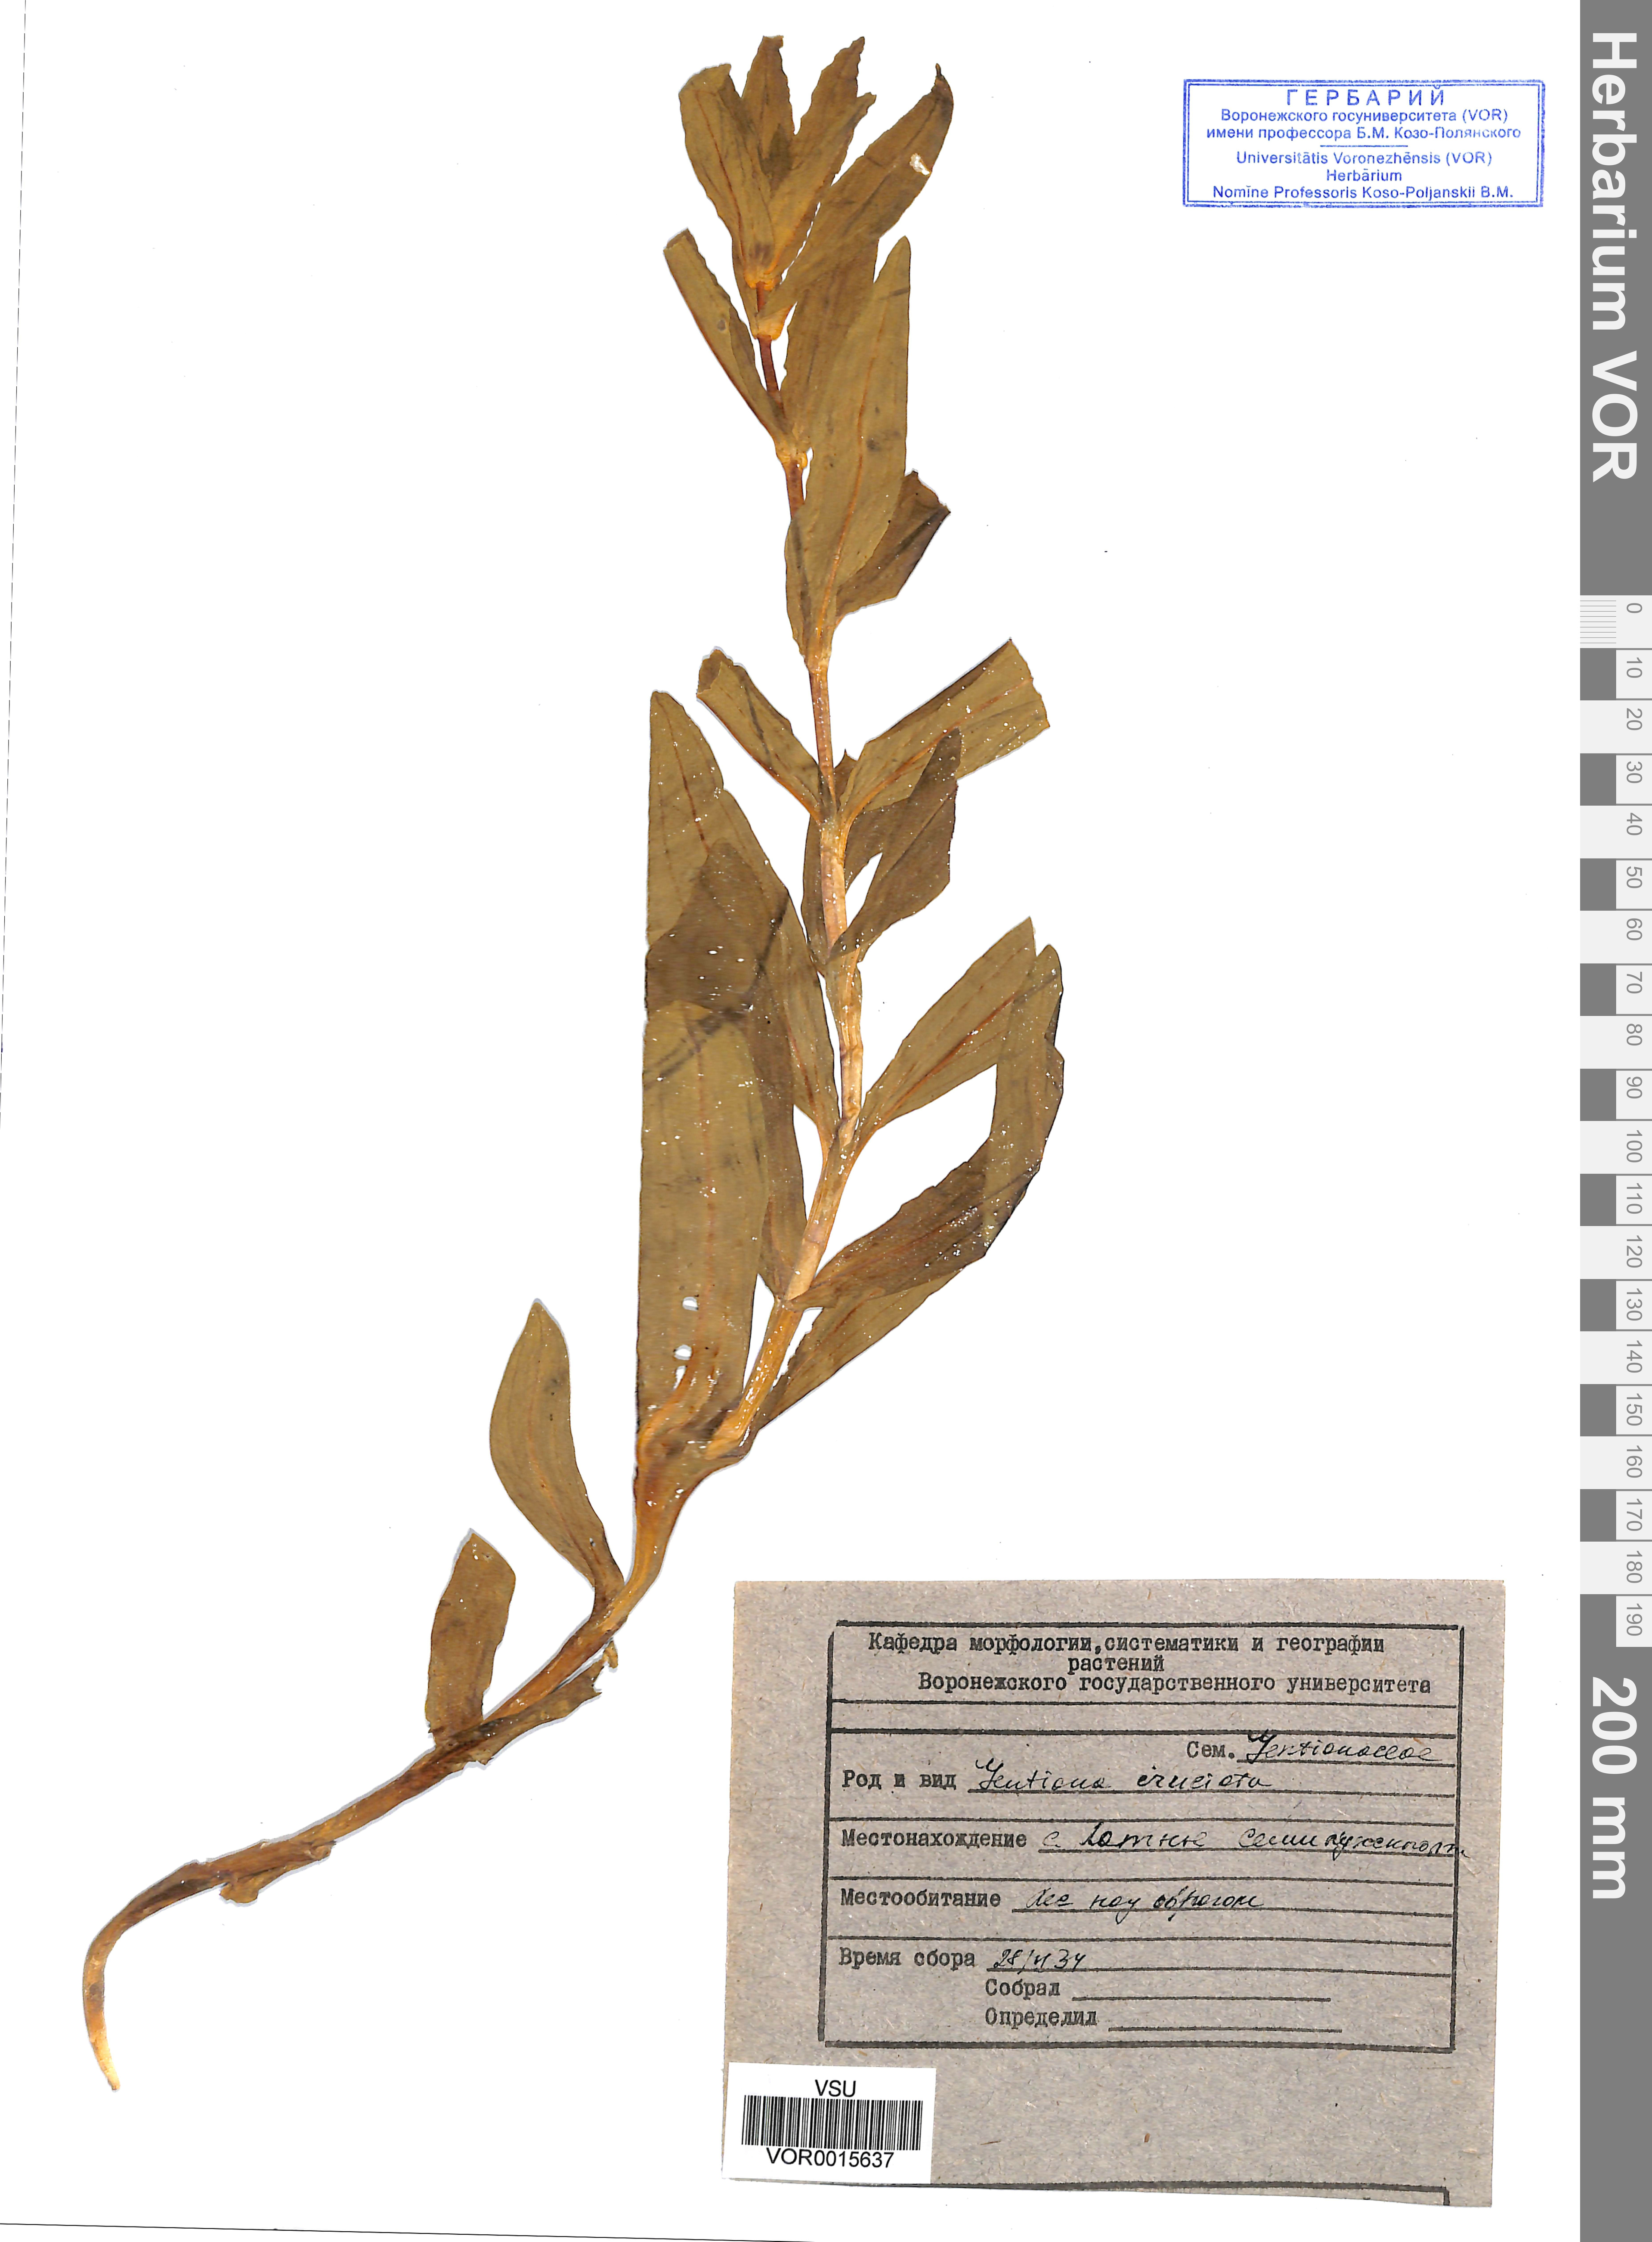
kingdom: Plantae
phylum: Tracheophyta
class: Magnoliopsida
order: Gentianales
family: Gentianaceae
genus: Gentiana
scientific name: Gentiana cruciata
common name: Cross gentian
